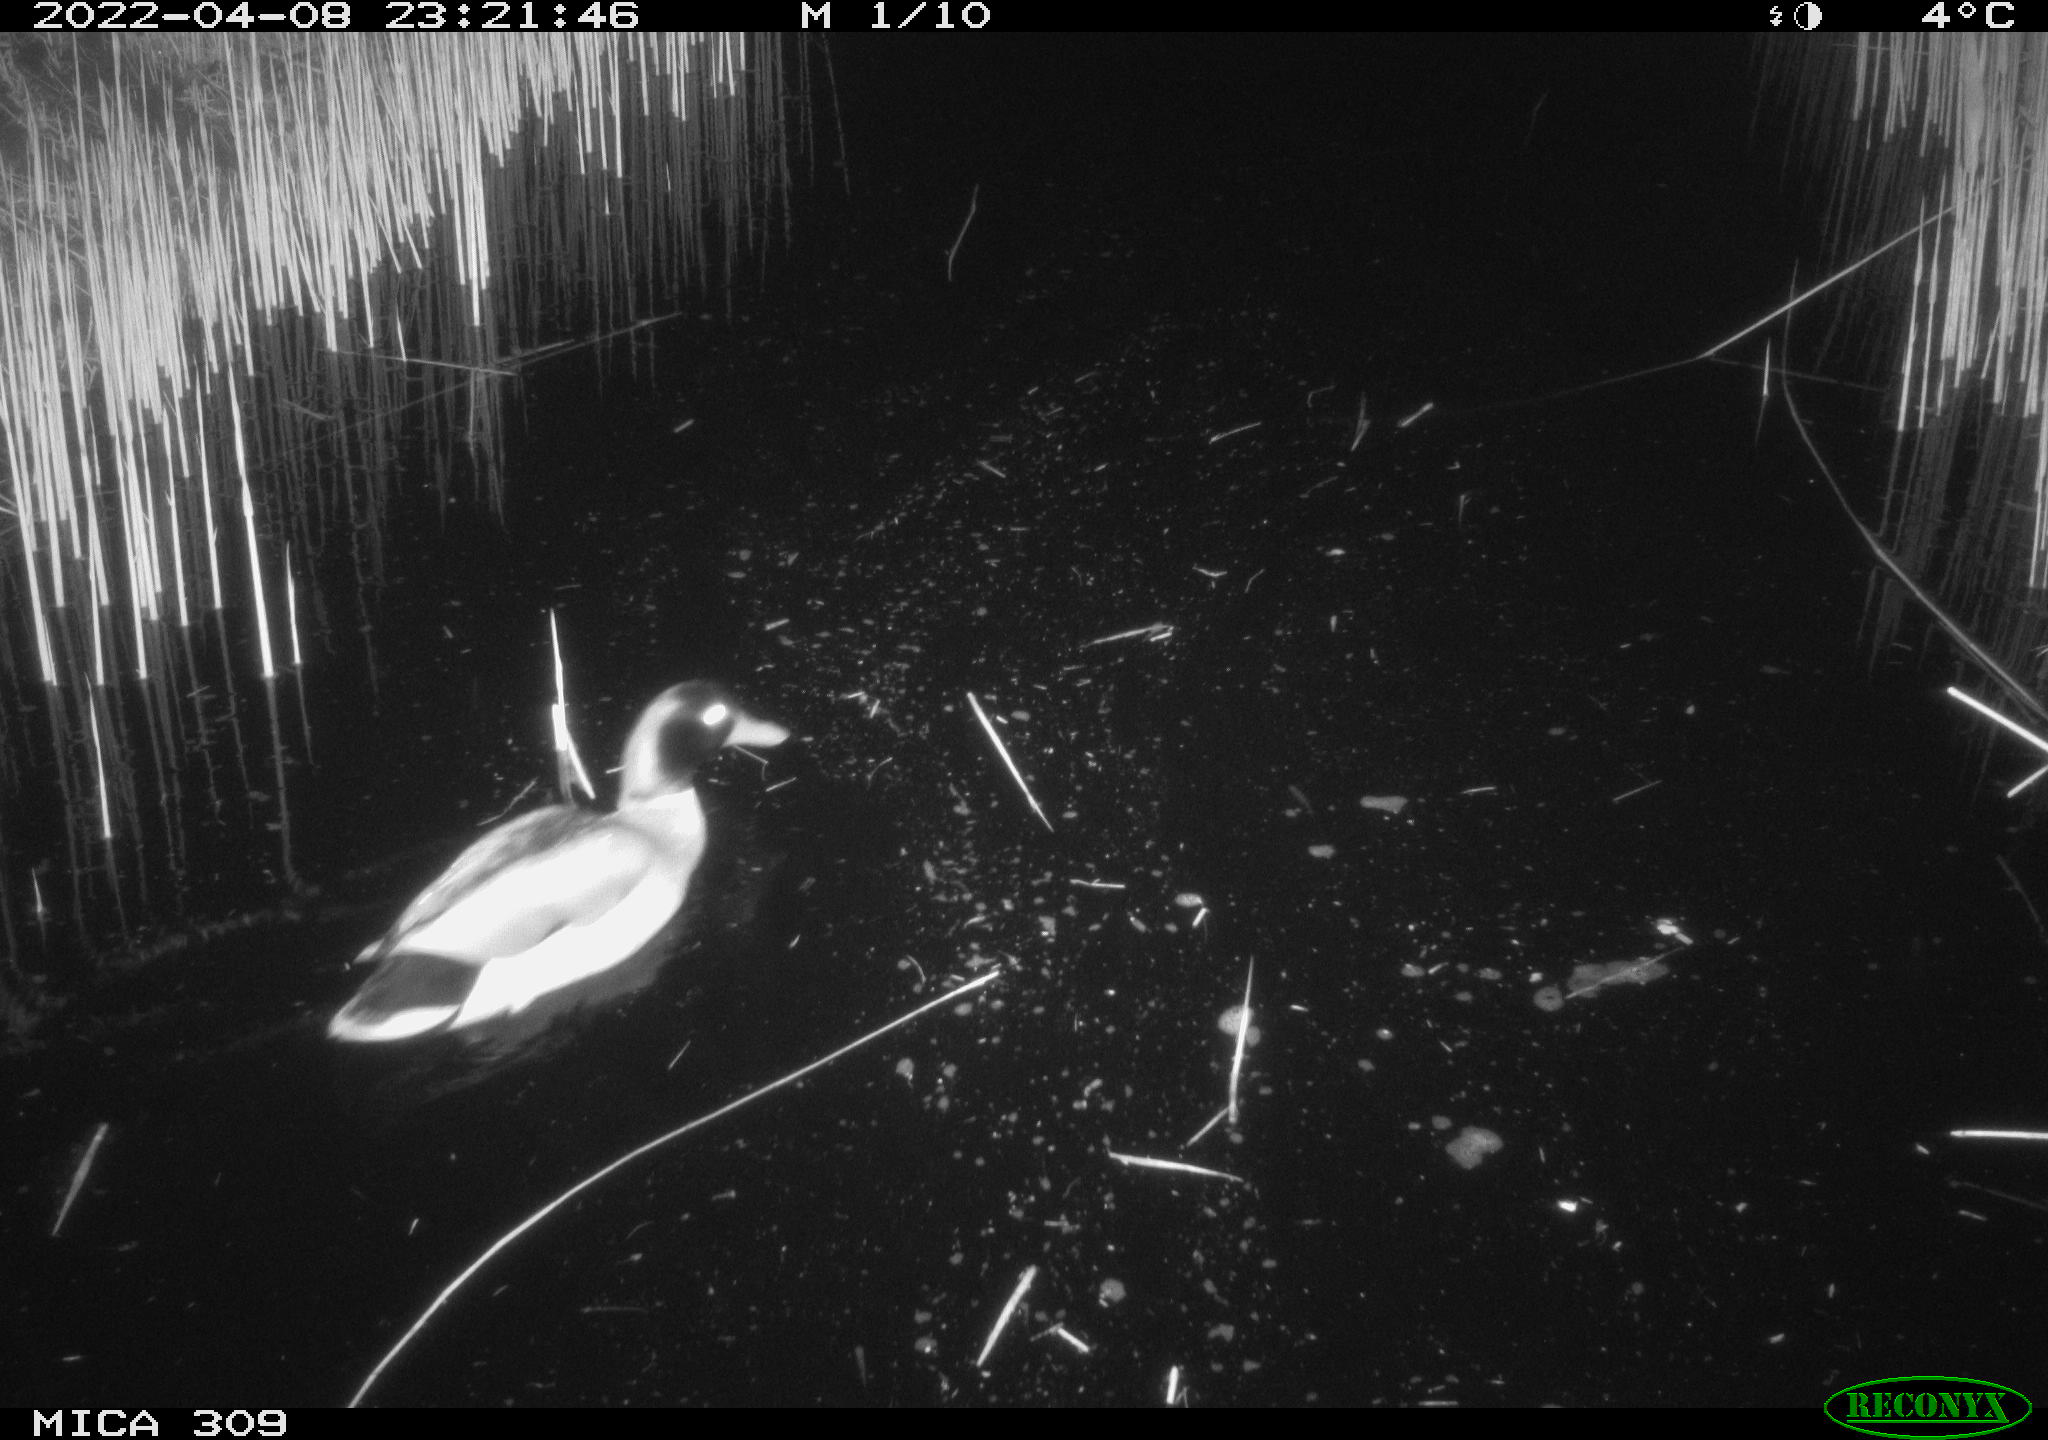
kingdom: Animalia
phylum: Chordata
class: Aves
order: Anseriformes
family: Anatidae
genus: Anas
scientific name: Anas platyrhynchos
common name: Mallard
